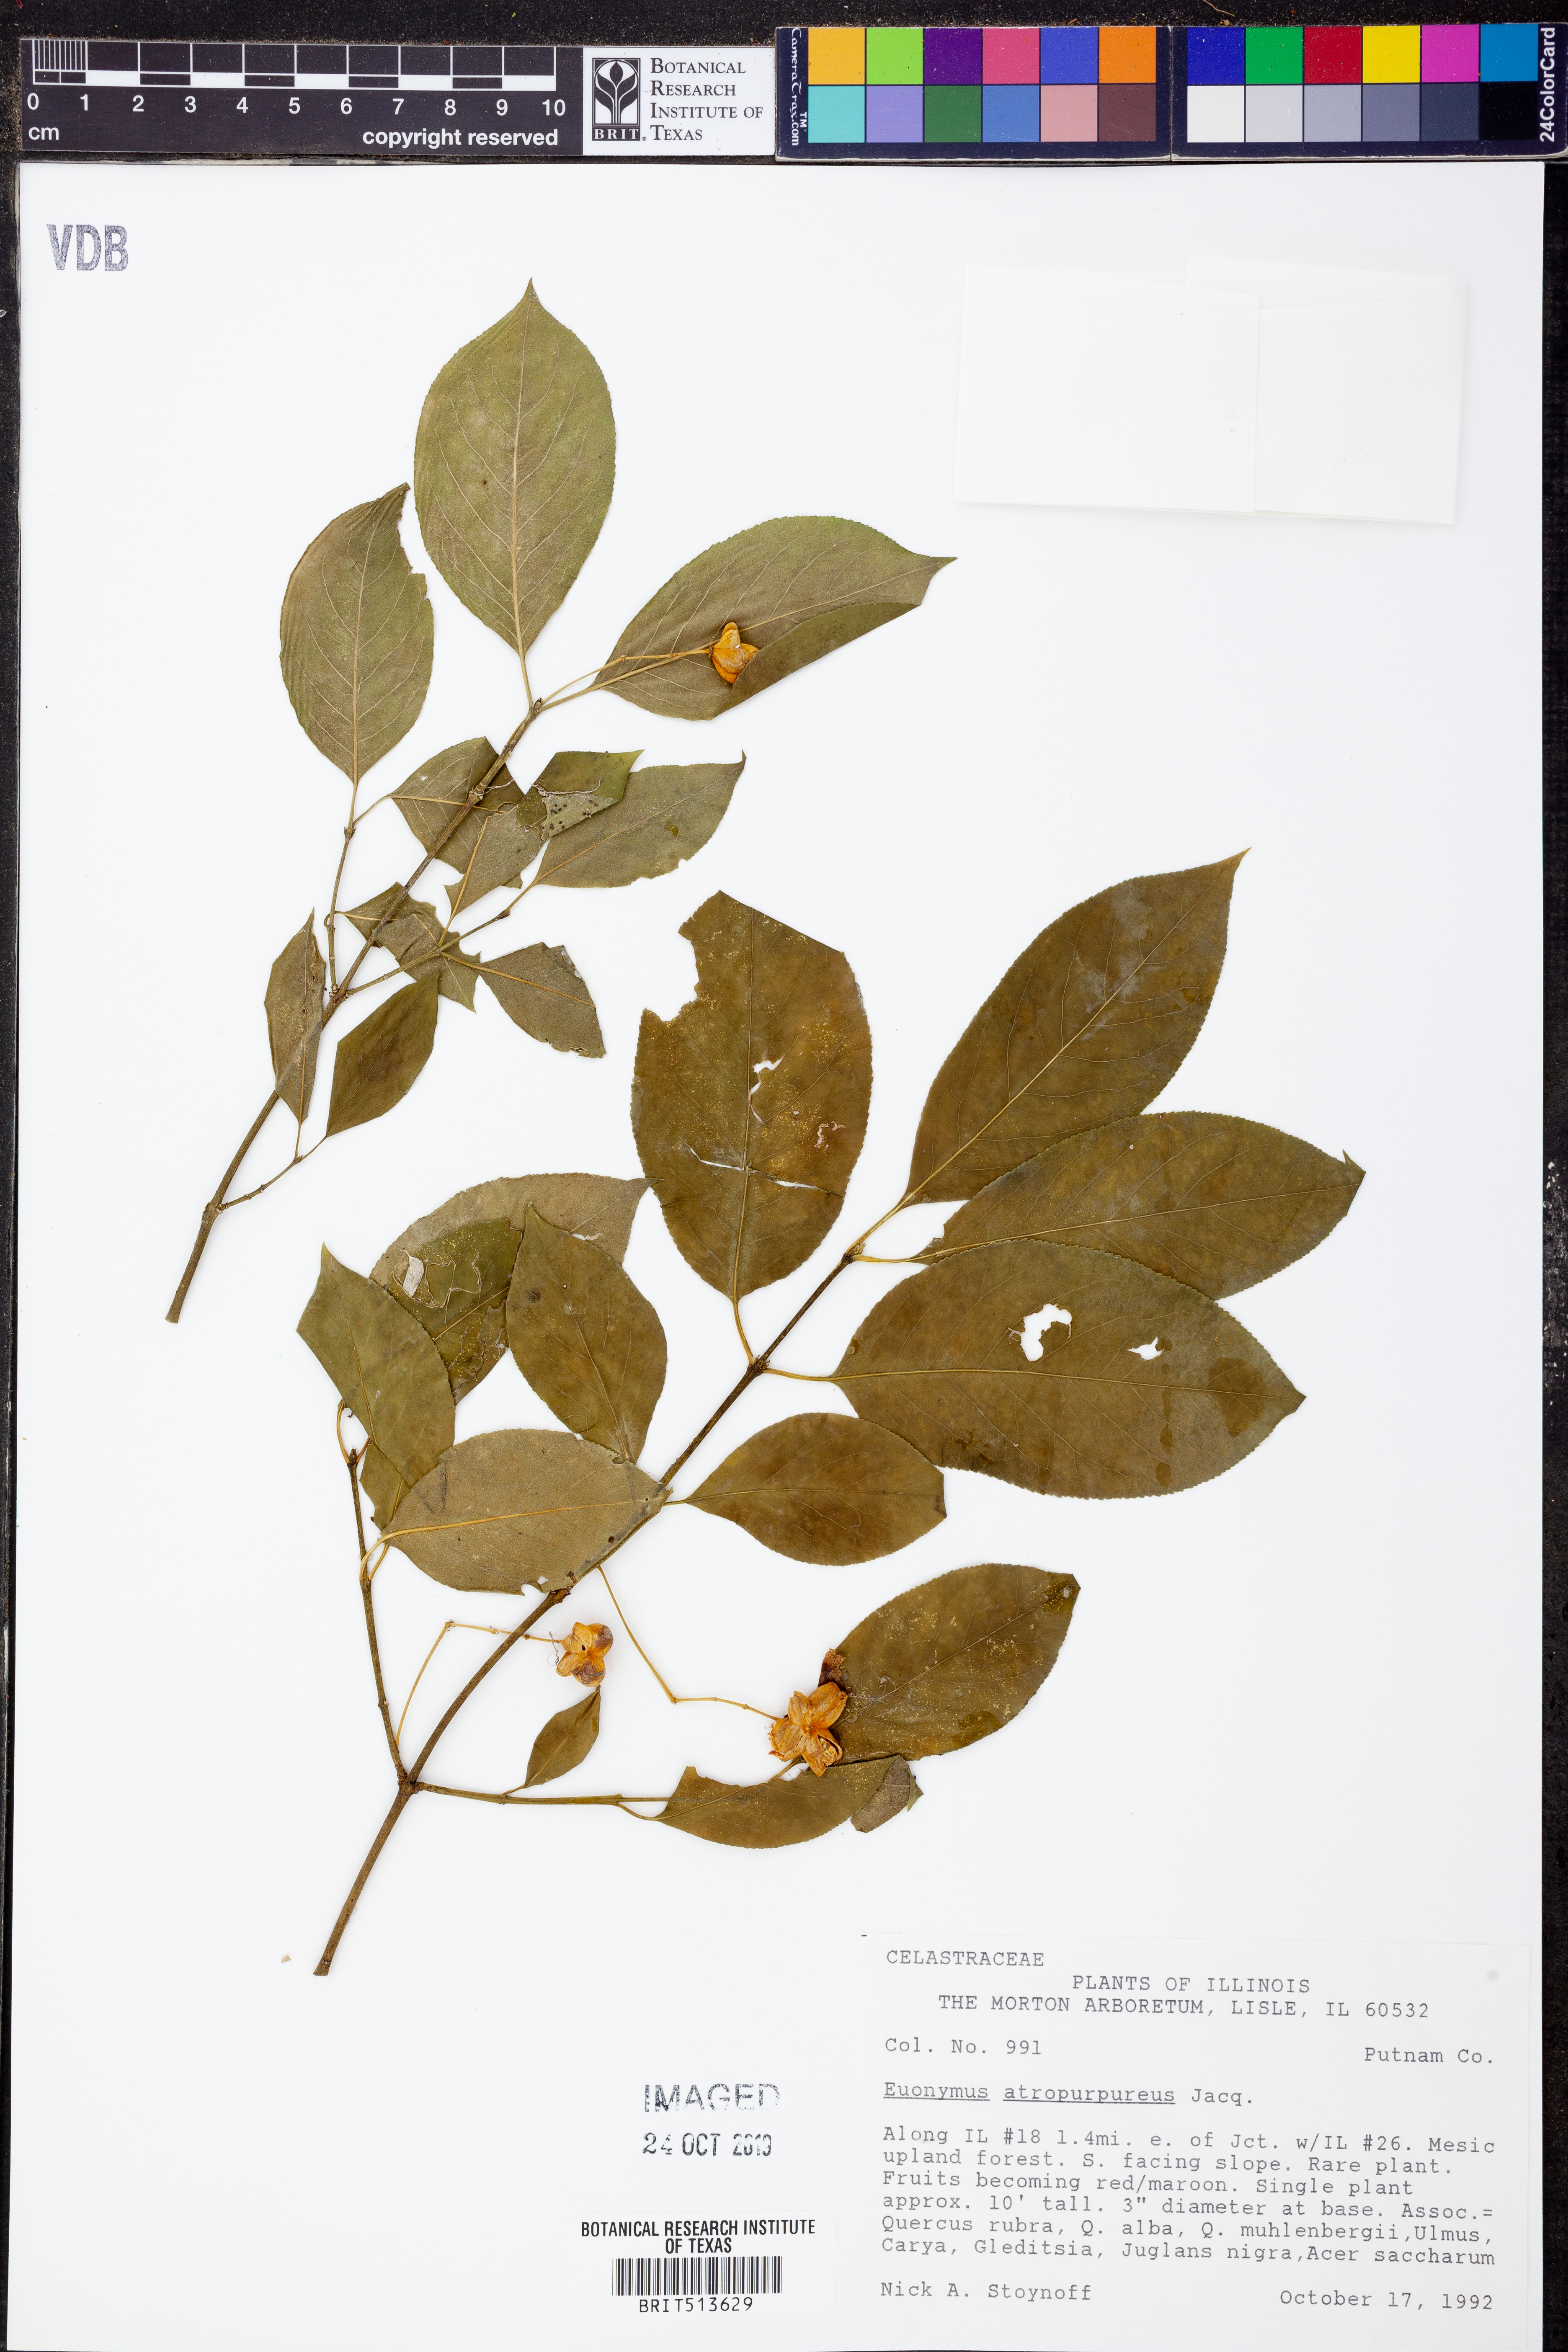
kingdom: Plantae
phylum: Tracheophyta
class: Magnoliopsida
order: Celastrales
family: Celastraceae
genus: Euonymus
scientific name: Euonymus atropurpureus
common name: Eastern wahoo
